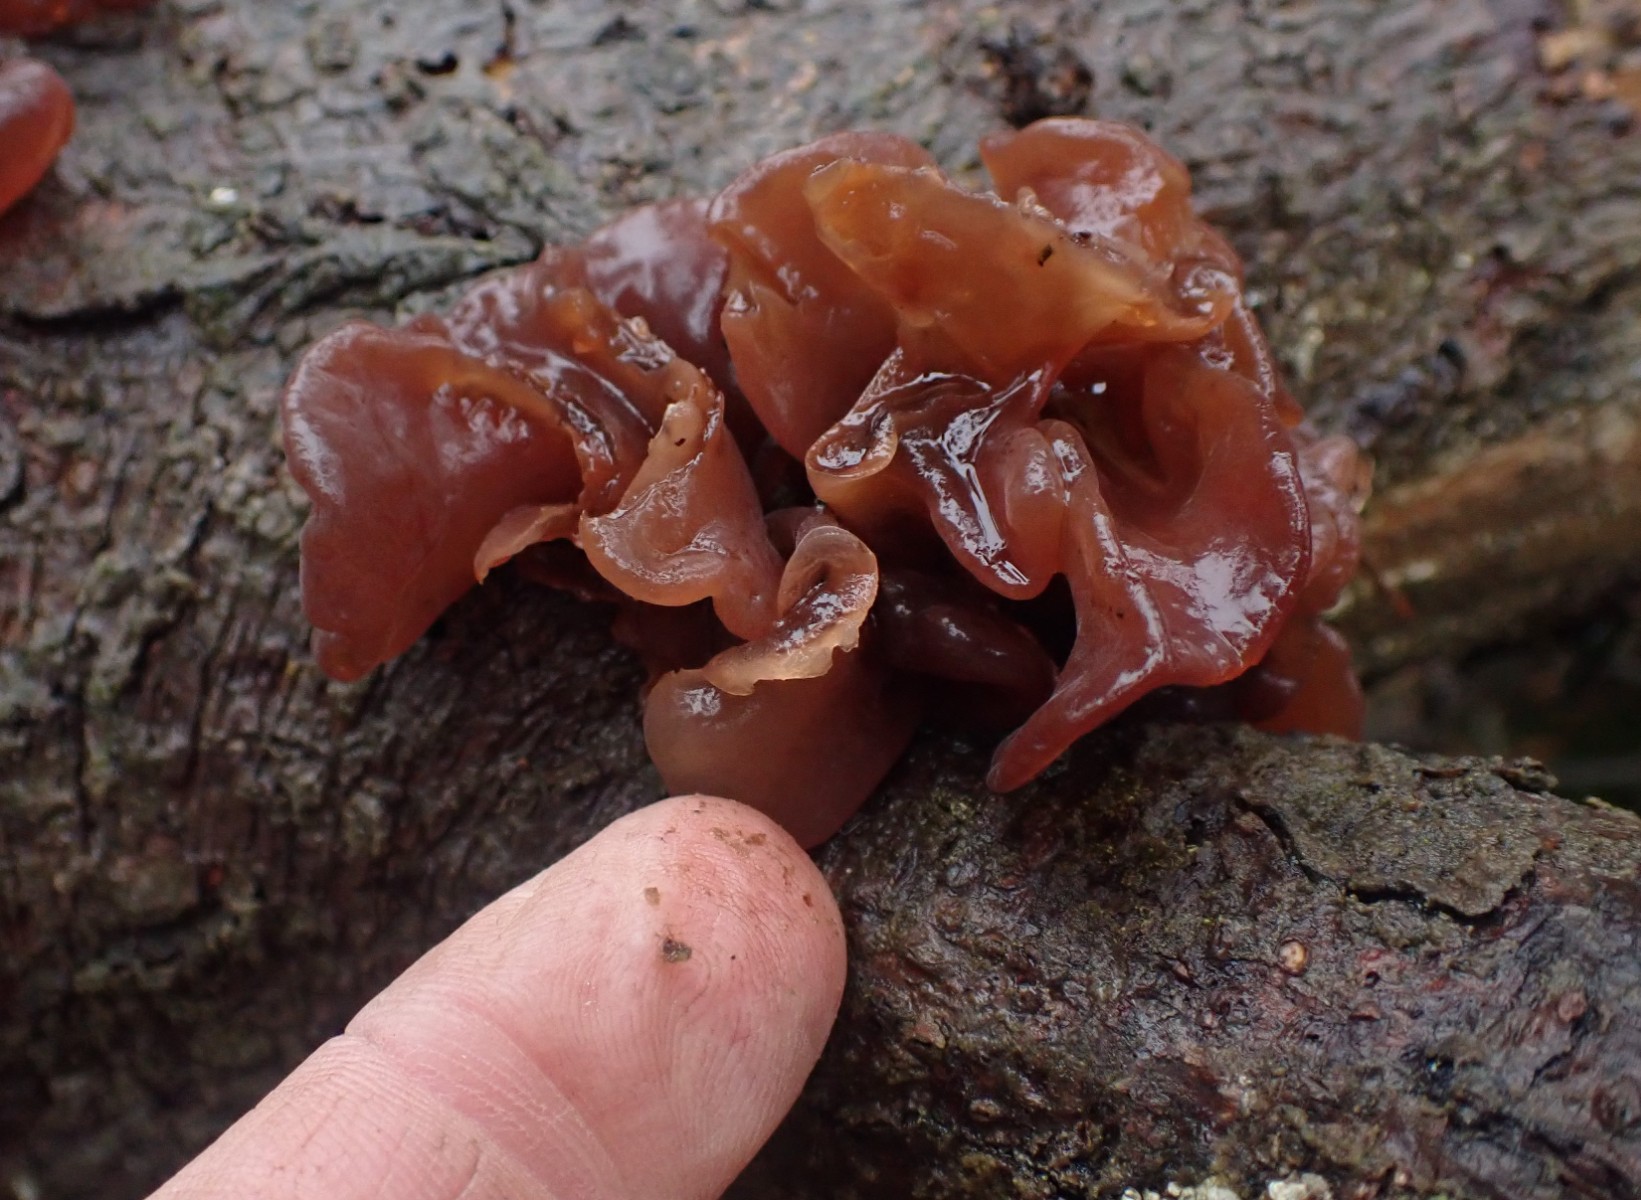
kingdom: Fungi
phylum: Basidiomycota
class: Tremellomycetes
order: Tremellales
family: Tremellaceae
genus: Phaeotremella
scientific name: Phaeotremella foliacea
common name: brun bævresvamp
